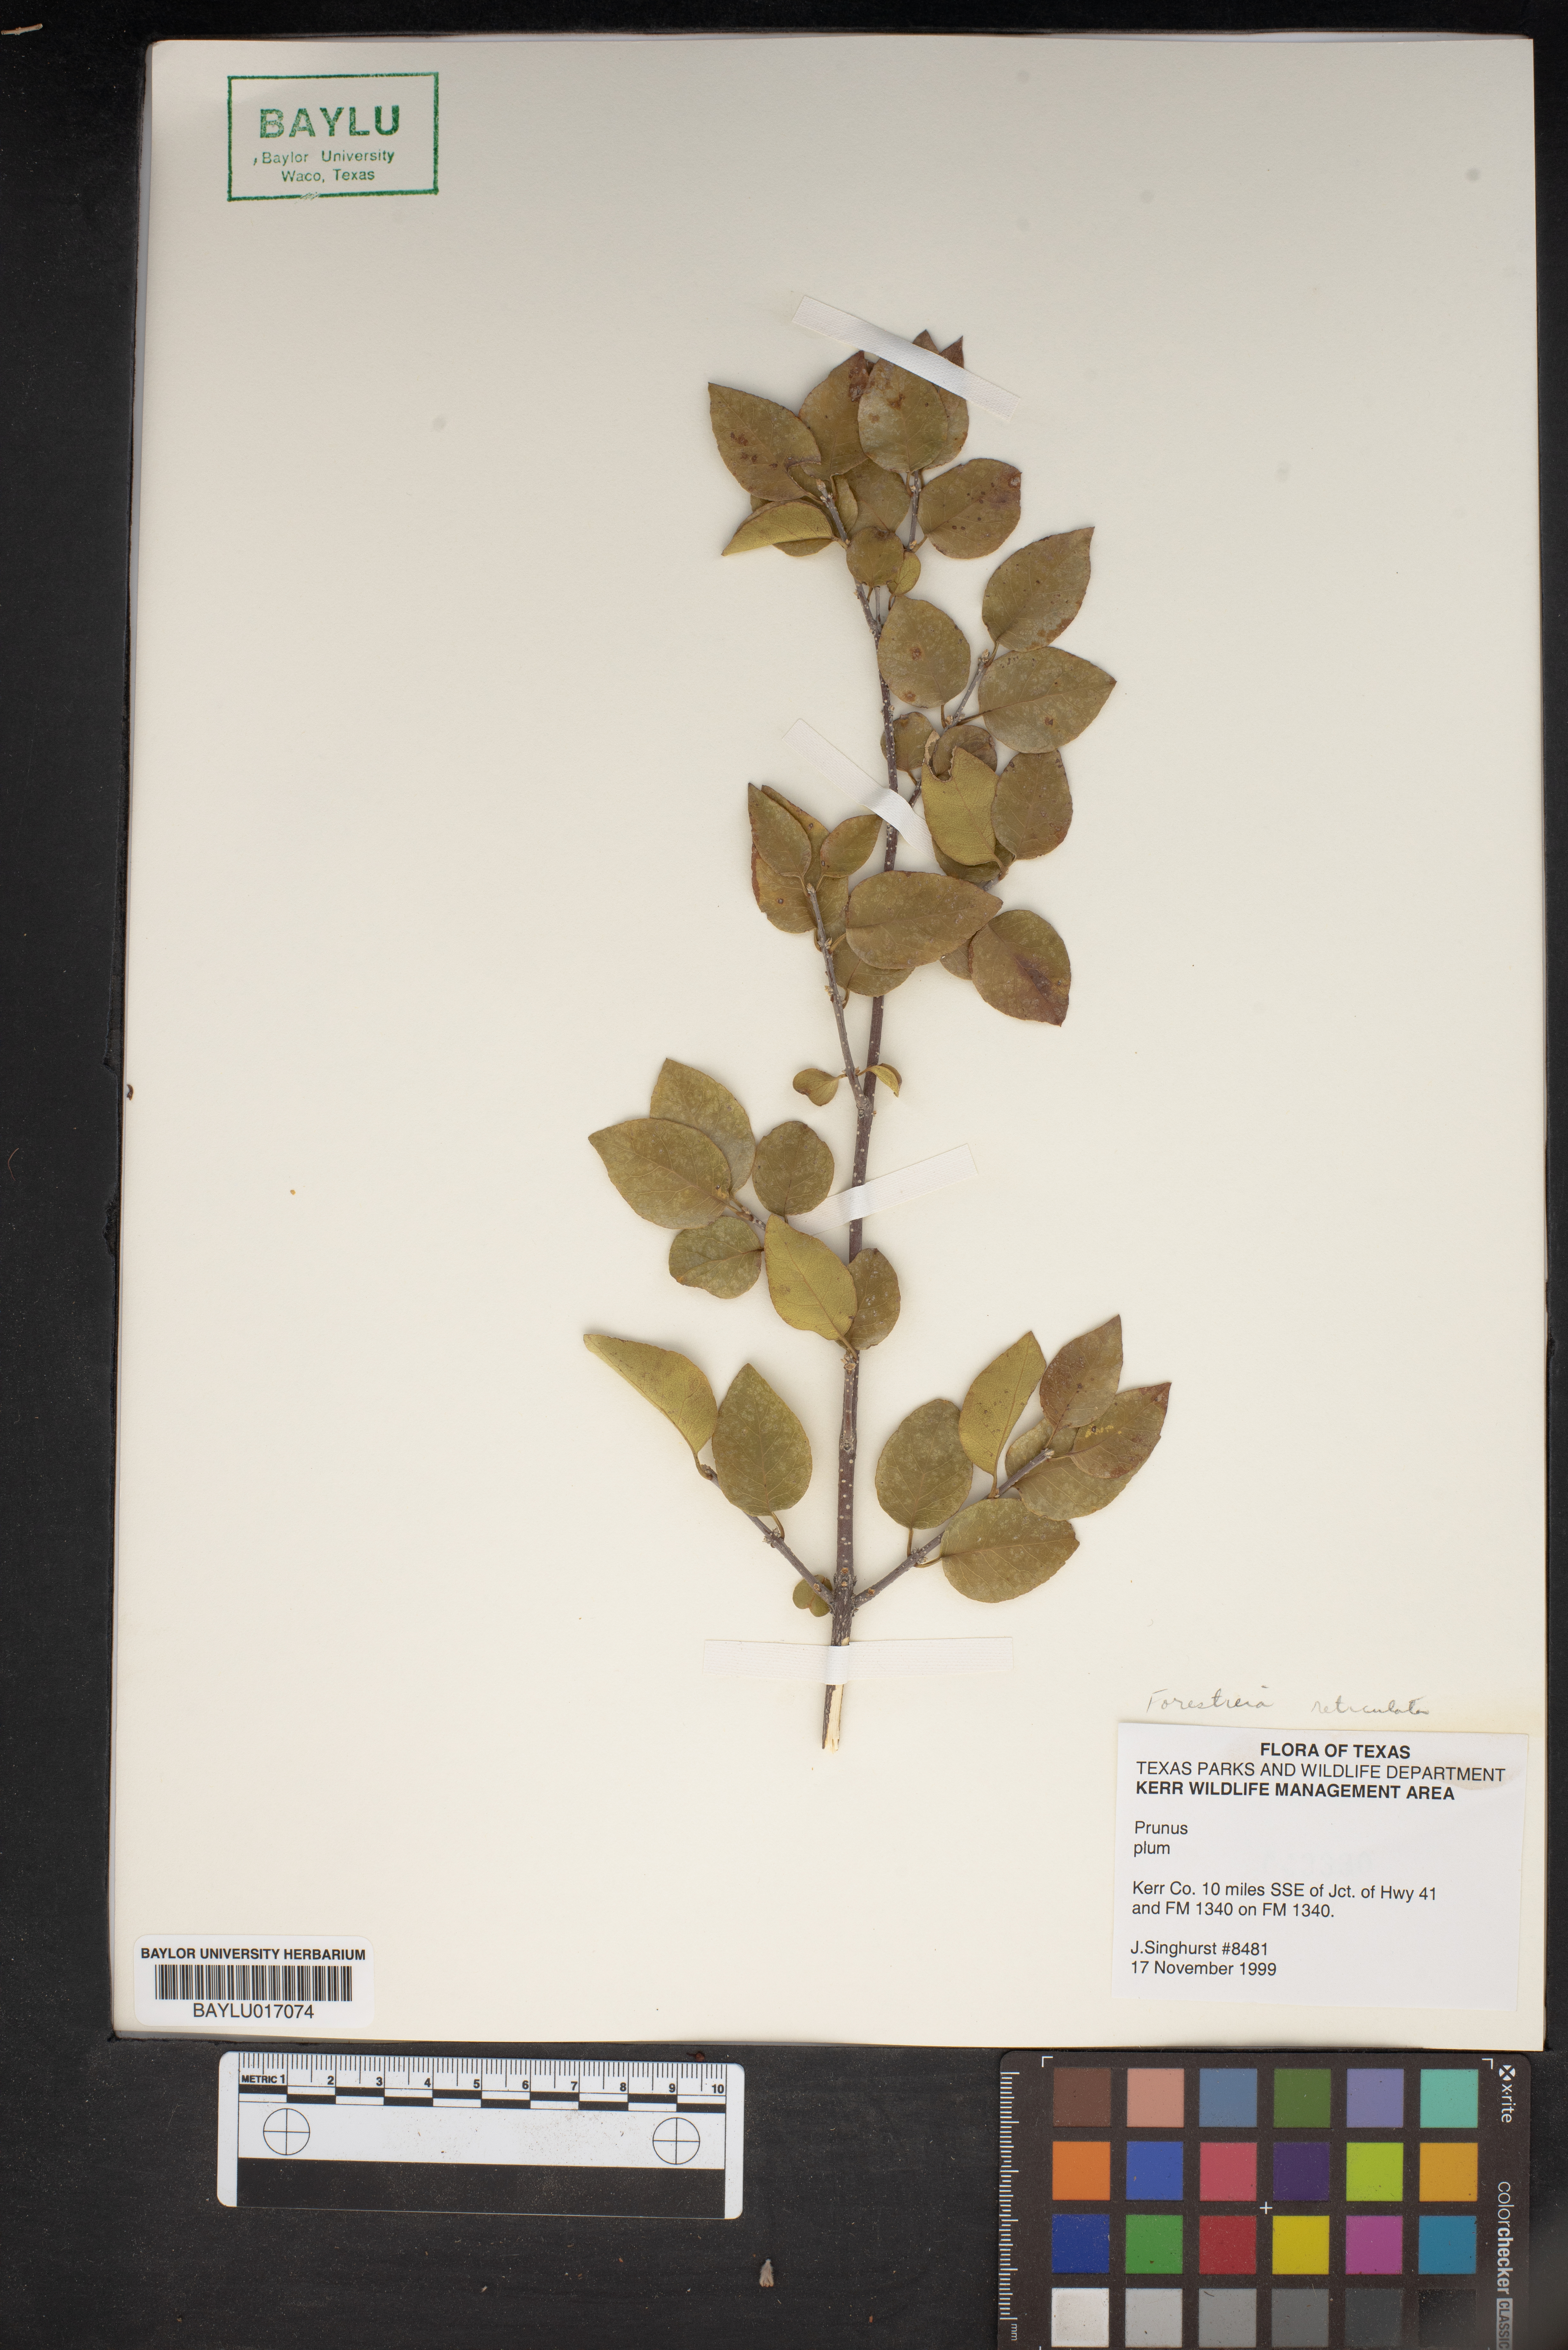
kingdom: Plantae
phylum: Tracheophyta
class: Magnoliopsida
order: Rosales
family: Rosaceae
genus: Prunus
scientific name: Prunus
